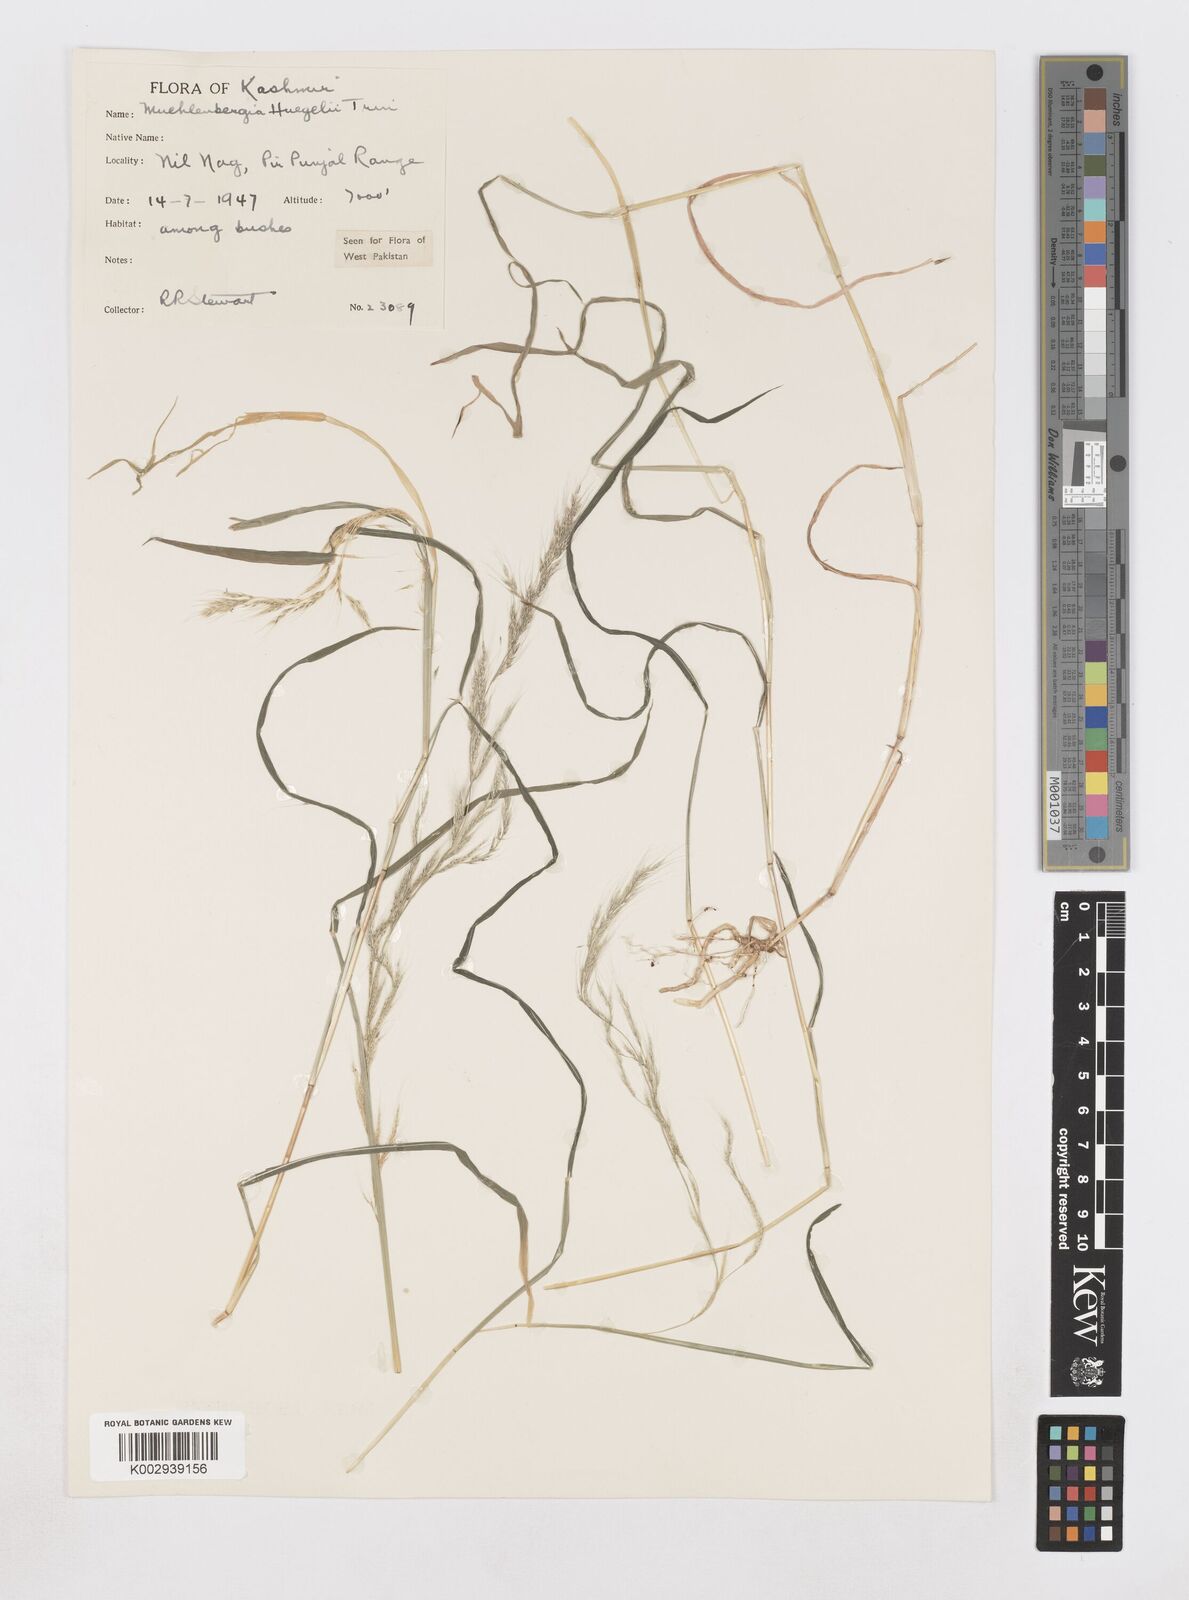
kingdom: Plantae
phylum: Tracheophyta
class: Liliopsida
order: Poales
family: Poaceae
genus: Muhlenbergia
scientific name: Muhlenbergia huegelii
